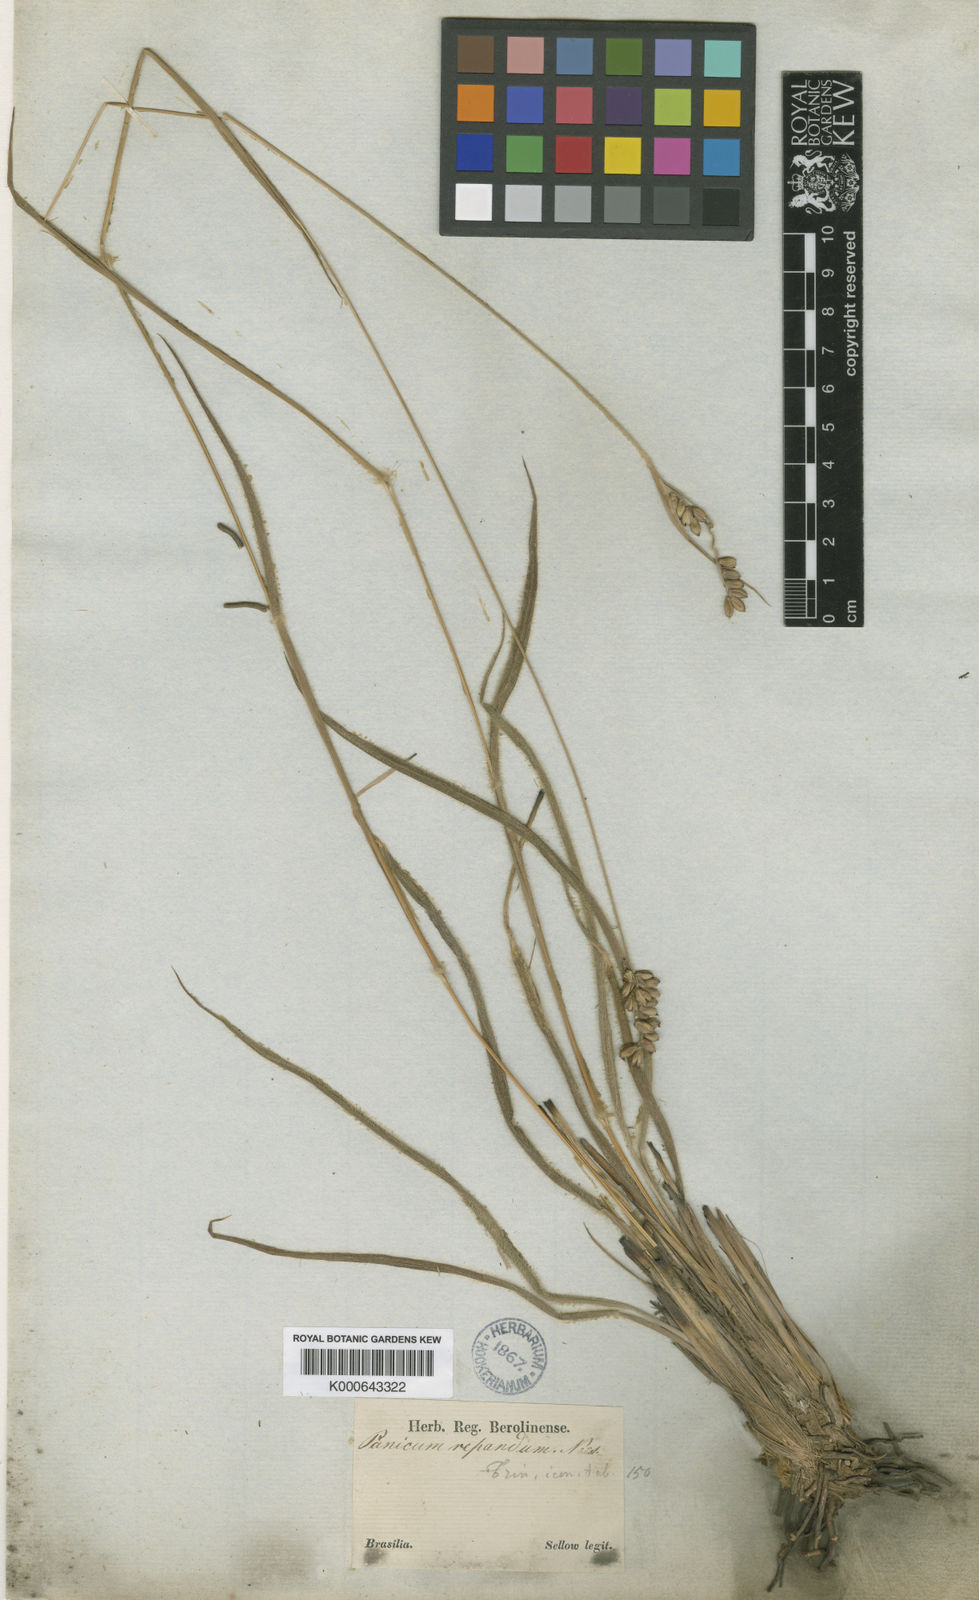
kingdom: Plantae
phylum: Tracheophyta
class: Liliopsida
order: Poales
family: Poaceae
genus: Paspalum
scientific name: Paspalum repandum
